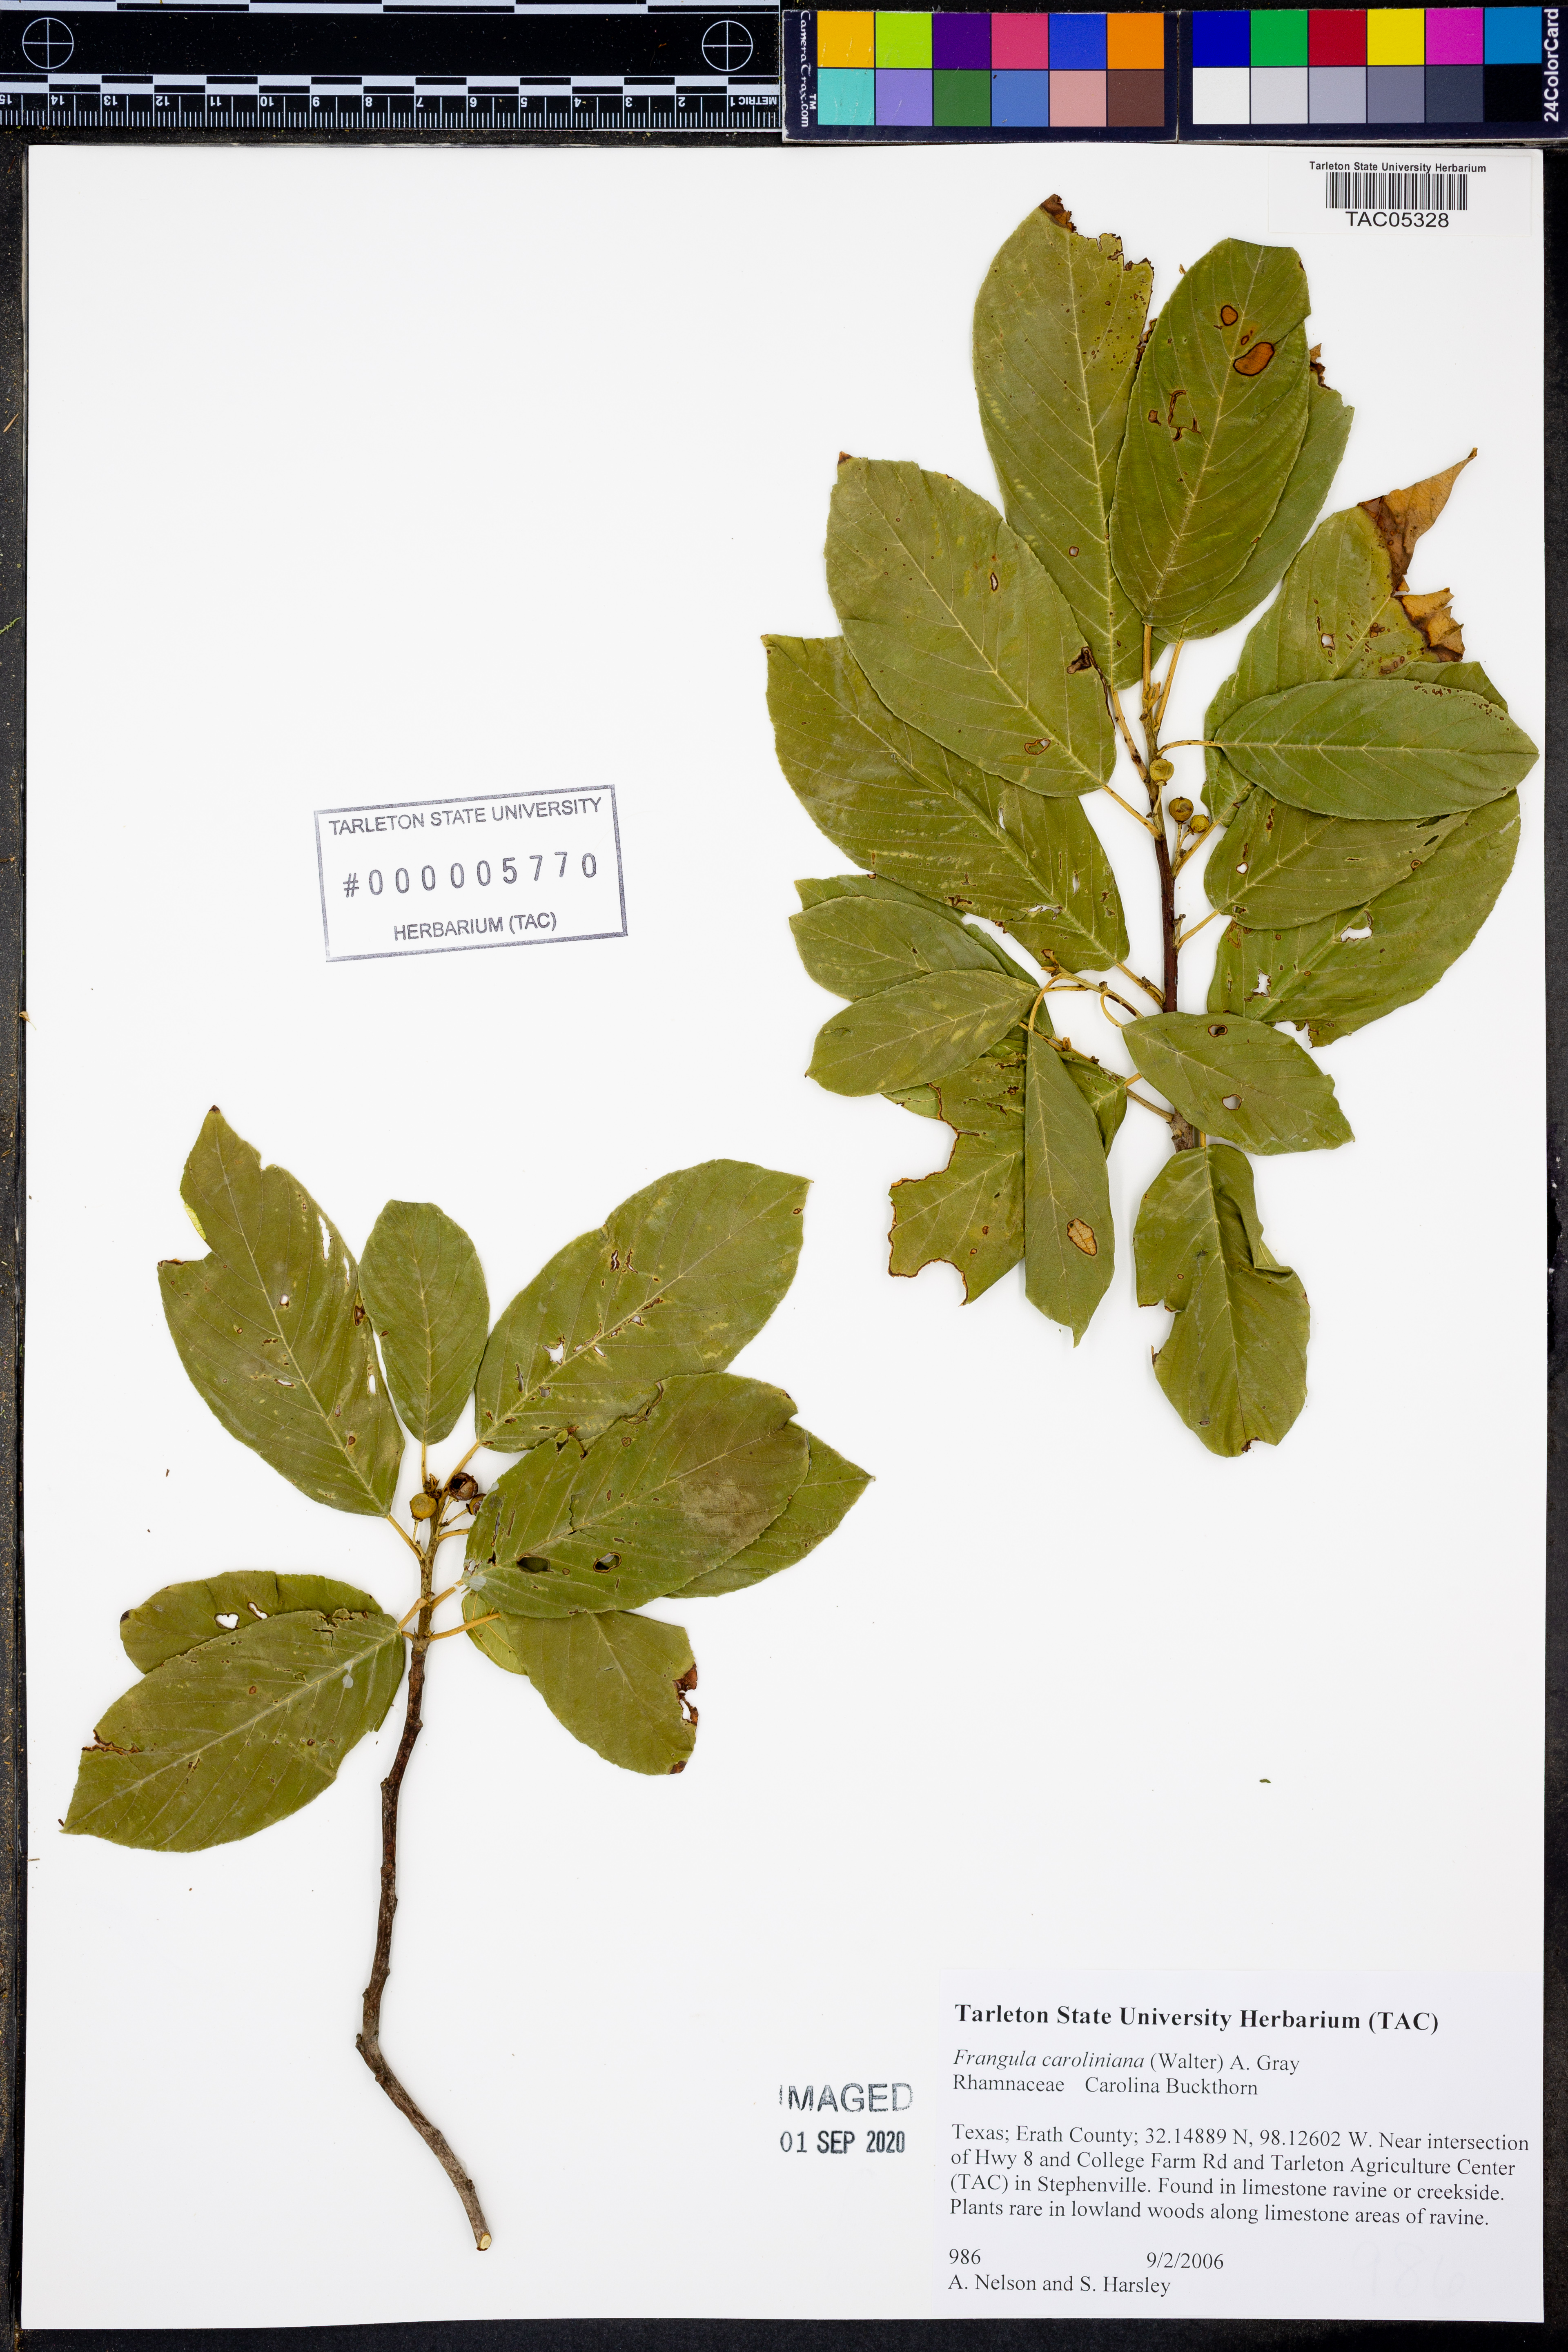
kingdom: Plantae
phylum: Tracheophyta
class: Magnoliopsida
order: Rosales
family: Rhamnaceae
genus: Frangula
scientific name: Frangula caroliniana
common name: Carolina buckthorn
